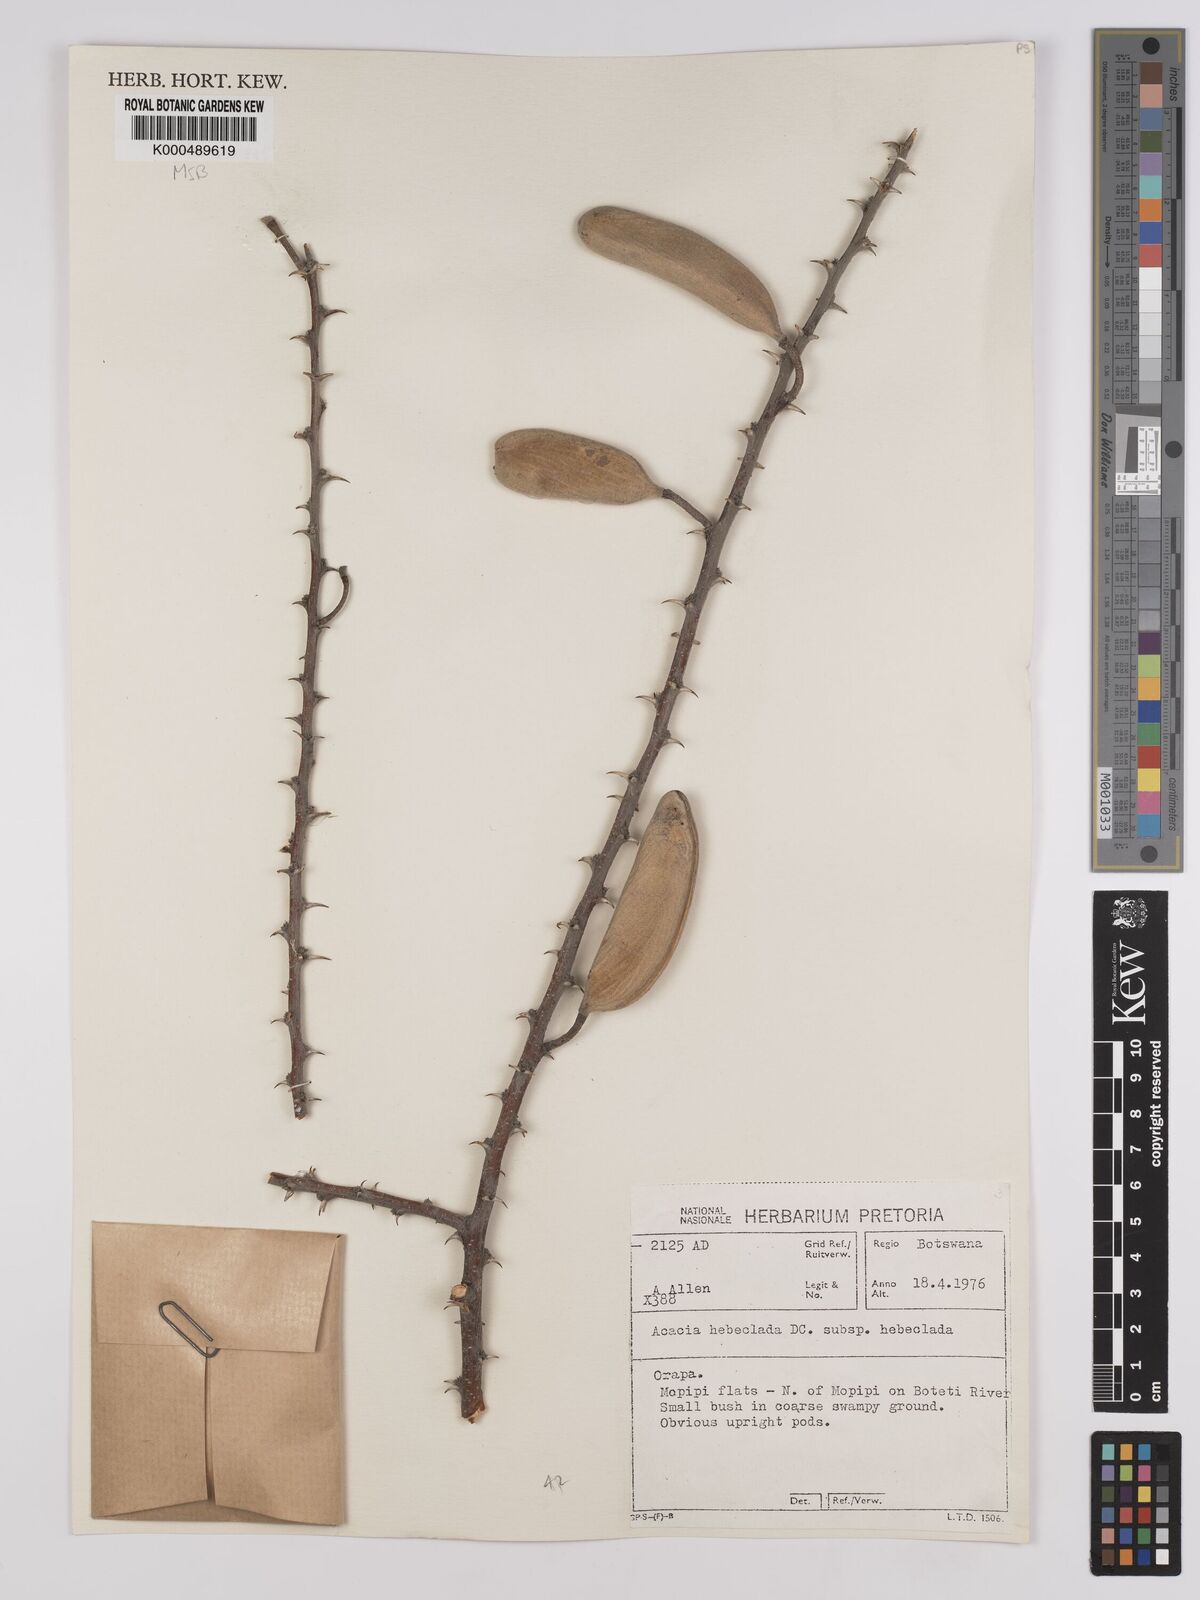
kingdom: Plantae
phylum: Tracheophyta
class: Magnoliopsida
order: Fabales
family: Fabaceae
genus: Vachellia
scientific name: Vachellia hebeclada
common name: Candle thorn
